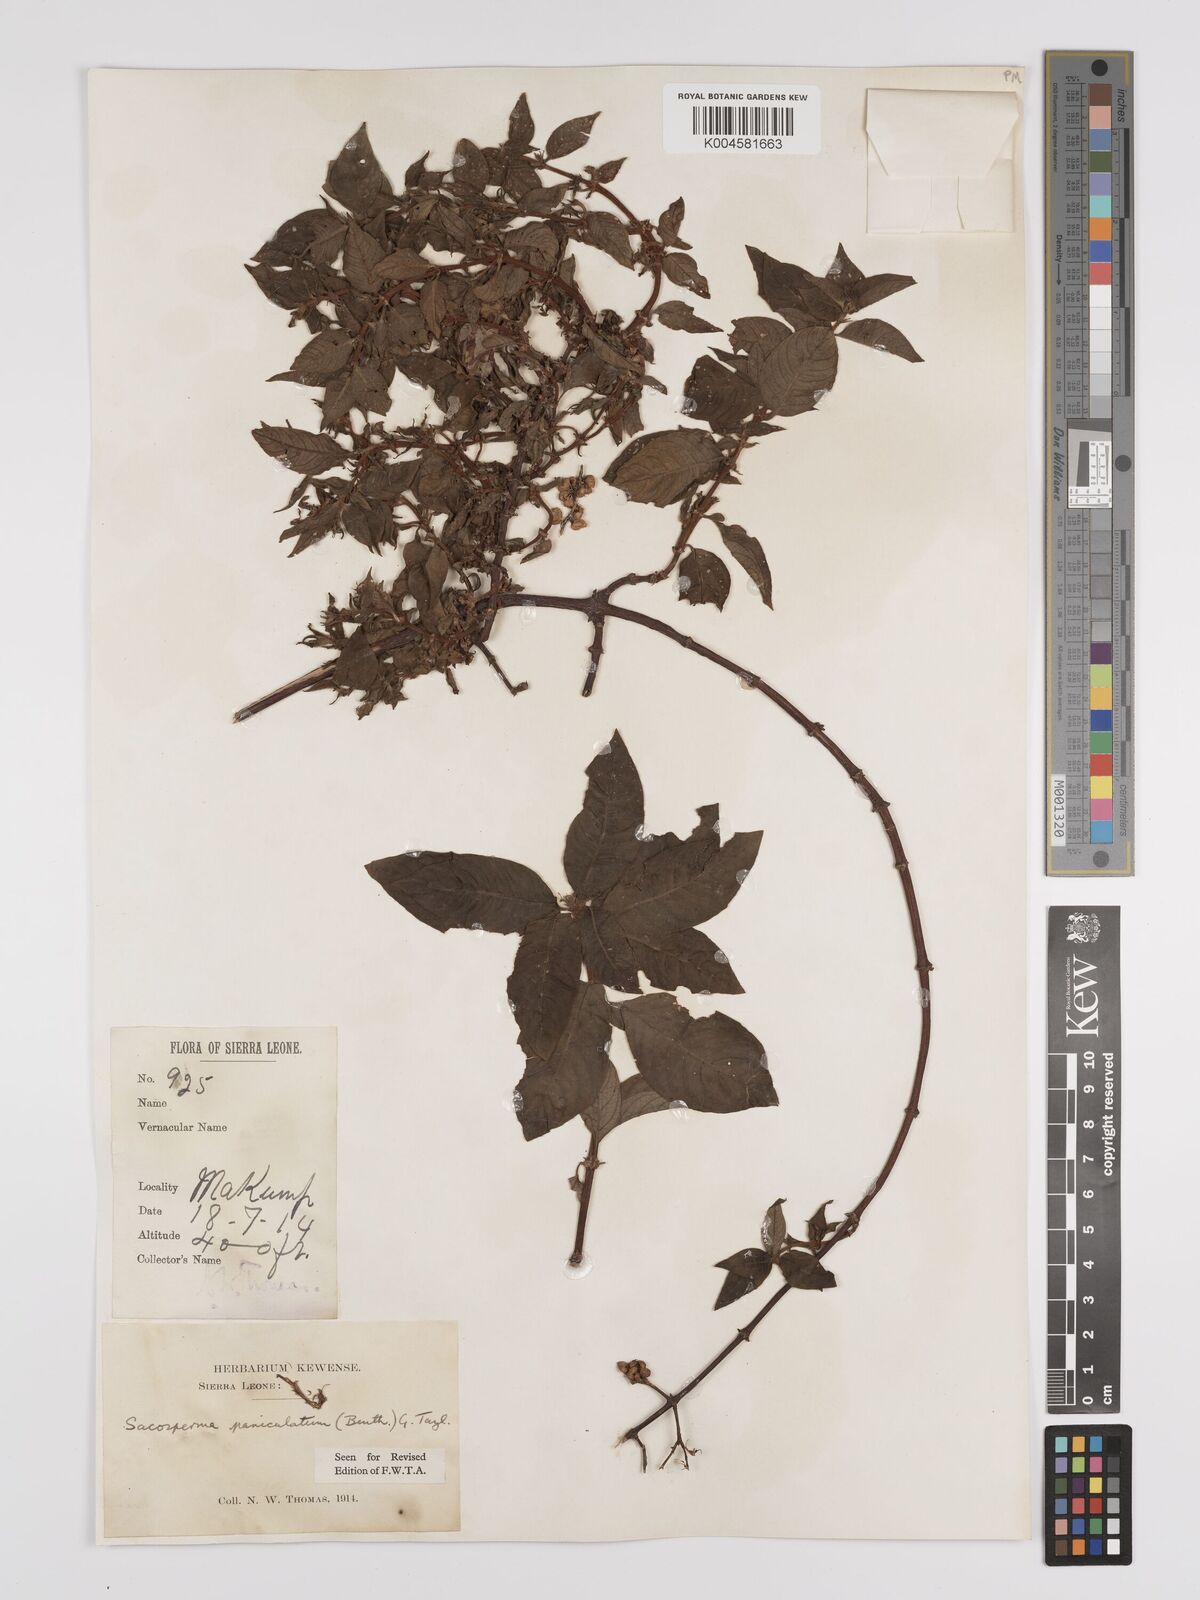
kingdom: Plantae
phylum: Tracheophyta
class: Magnoliopsida
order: Gentianales
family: Rubiaceae
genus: Sacosperma
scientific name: Sacosperma paniculatum
